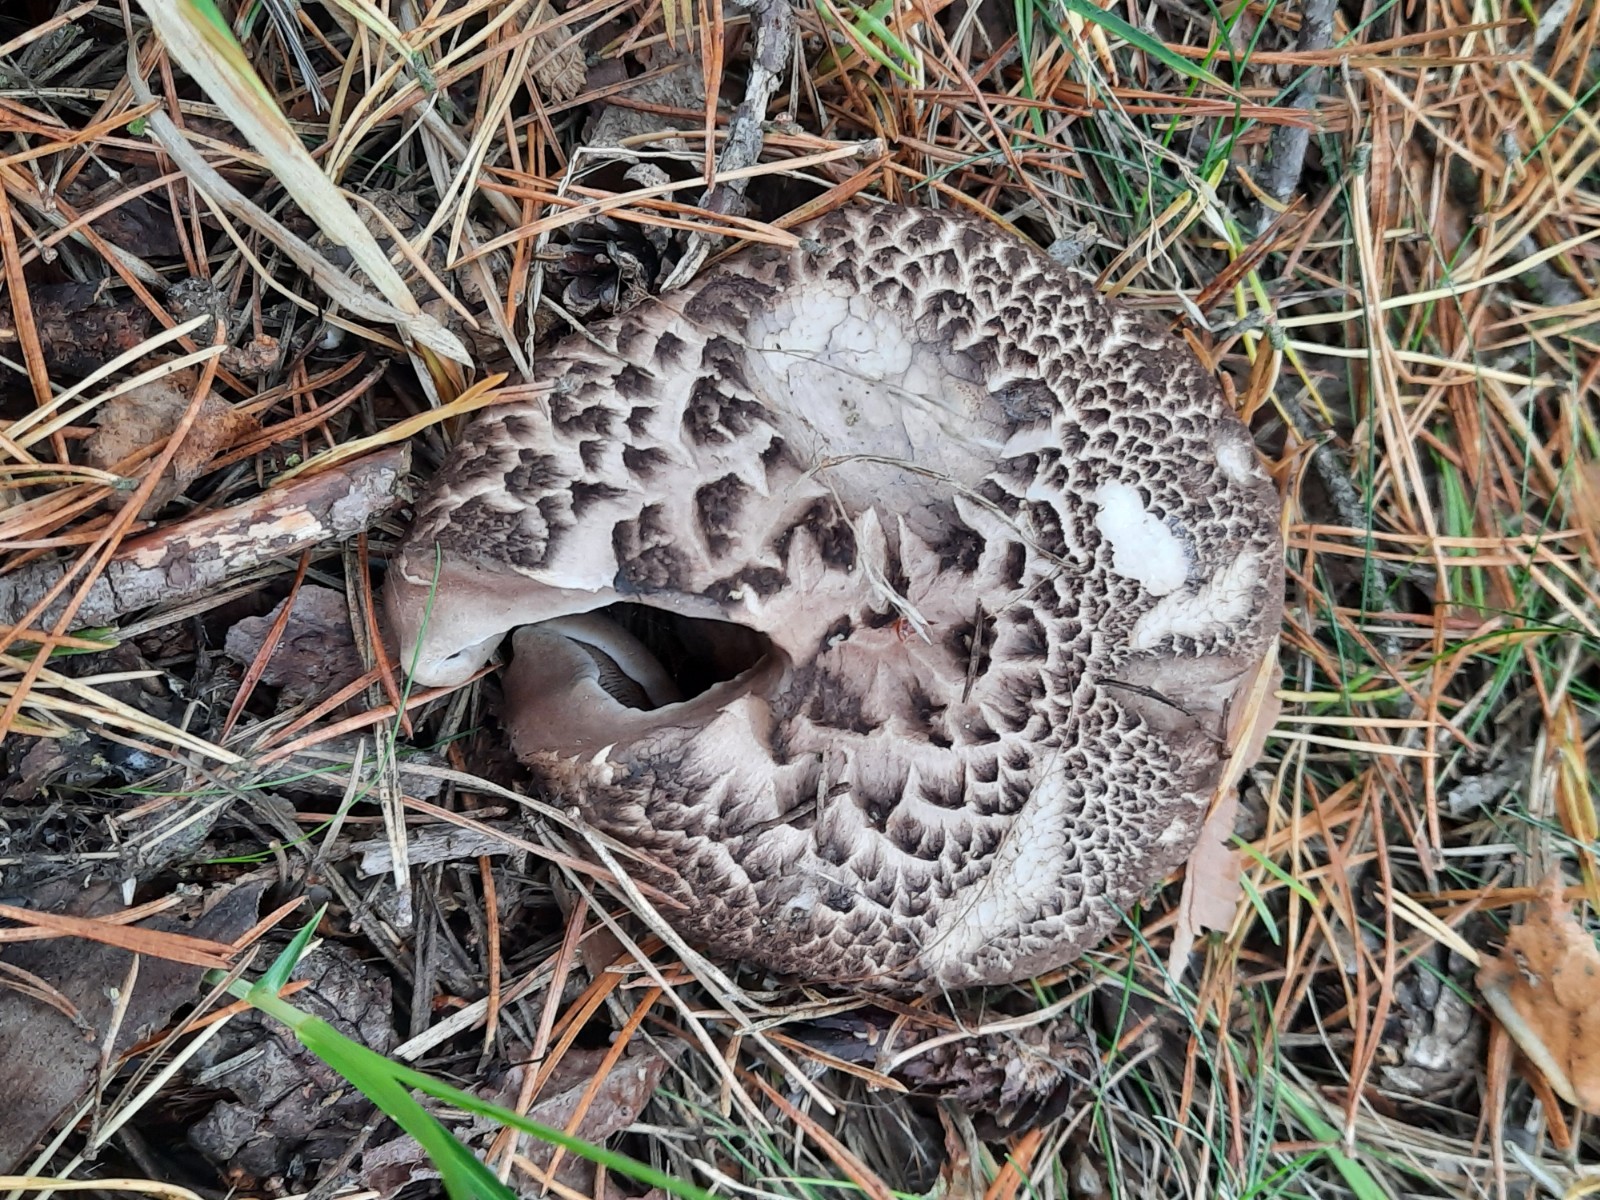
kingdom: Fungi
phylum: Basidiomycota
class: Agaricomycetes
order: Thelephorales
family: Bankeraceae
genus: Sarcodon
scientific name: Sarcodon squamosus
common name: småskællet kødpigsvamp
